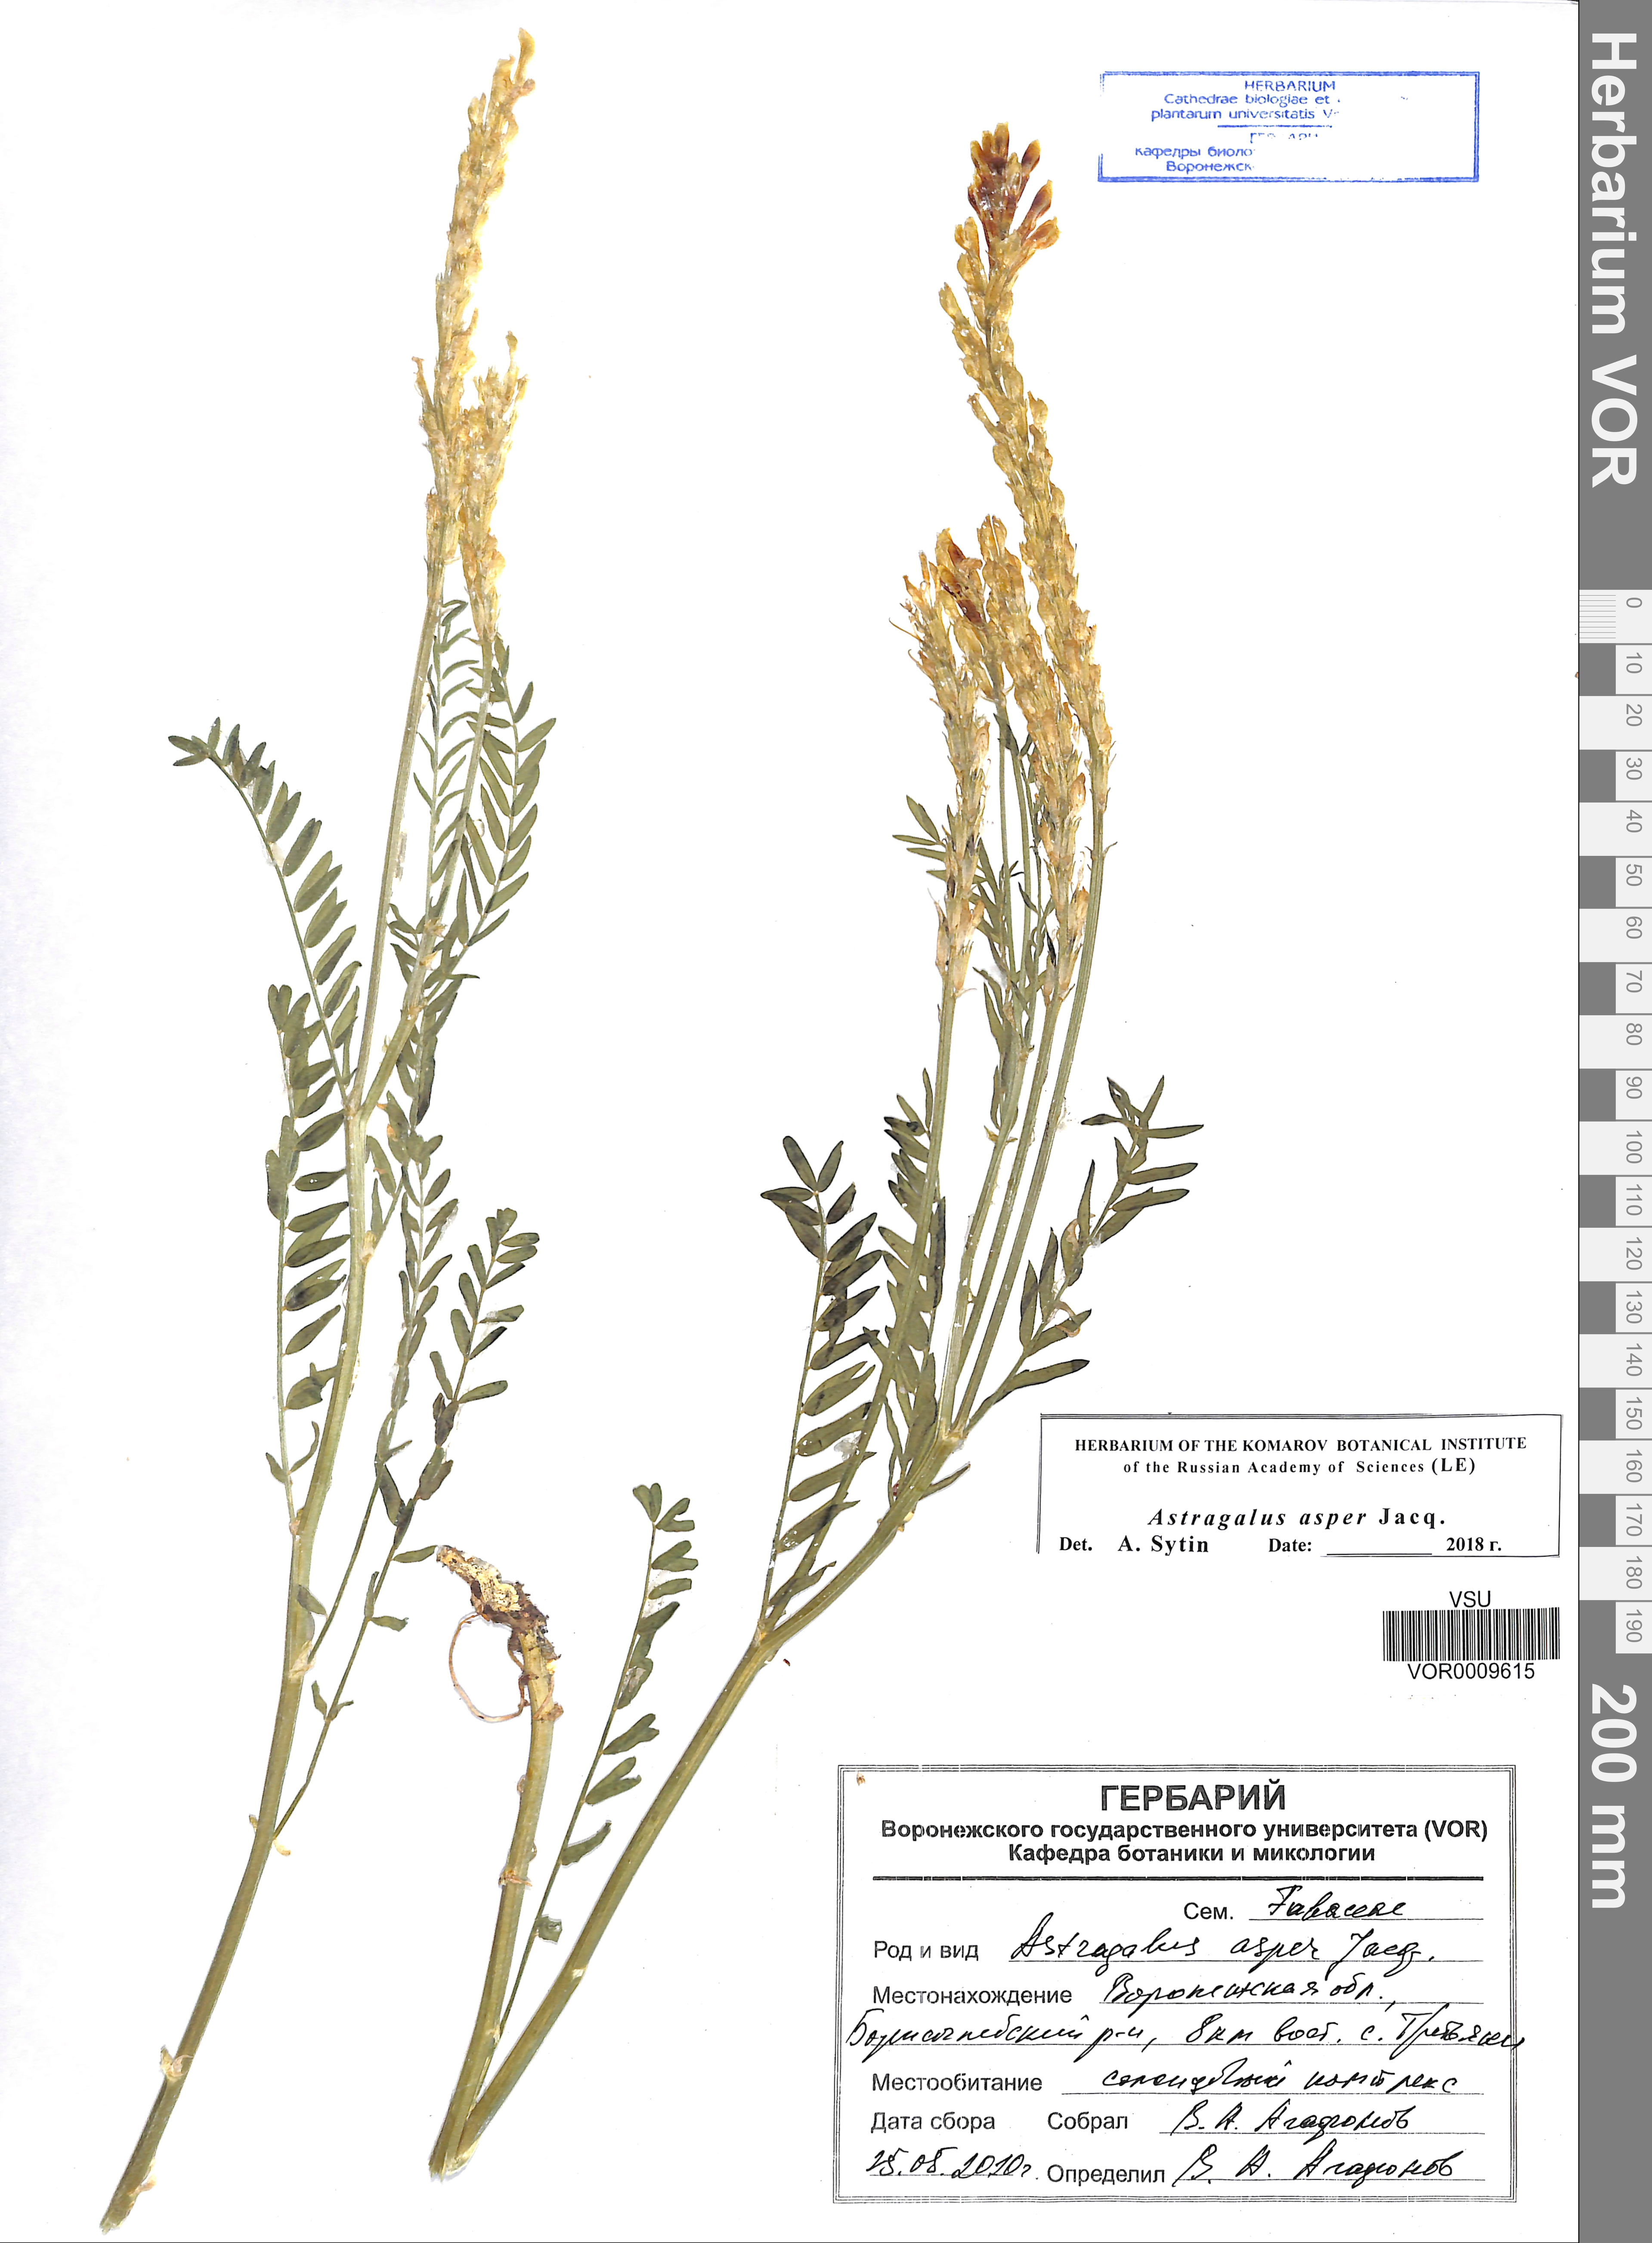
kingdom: Plantae
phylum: Tracheophyta
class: Magnoliopsida
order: Fabales
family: Fabaceae
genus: Astragalus
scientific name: Astragalus asper
